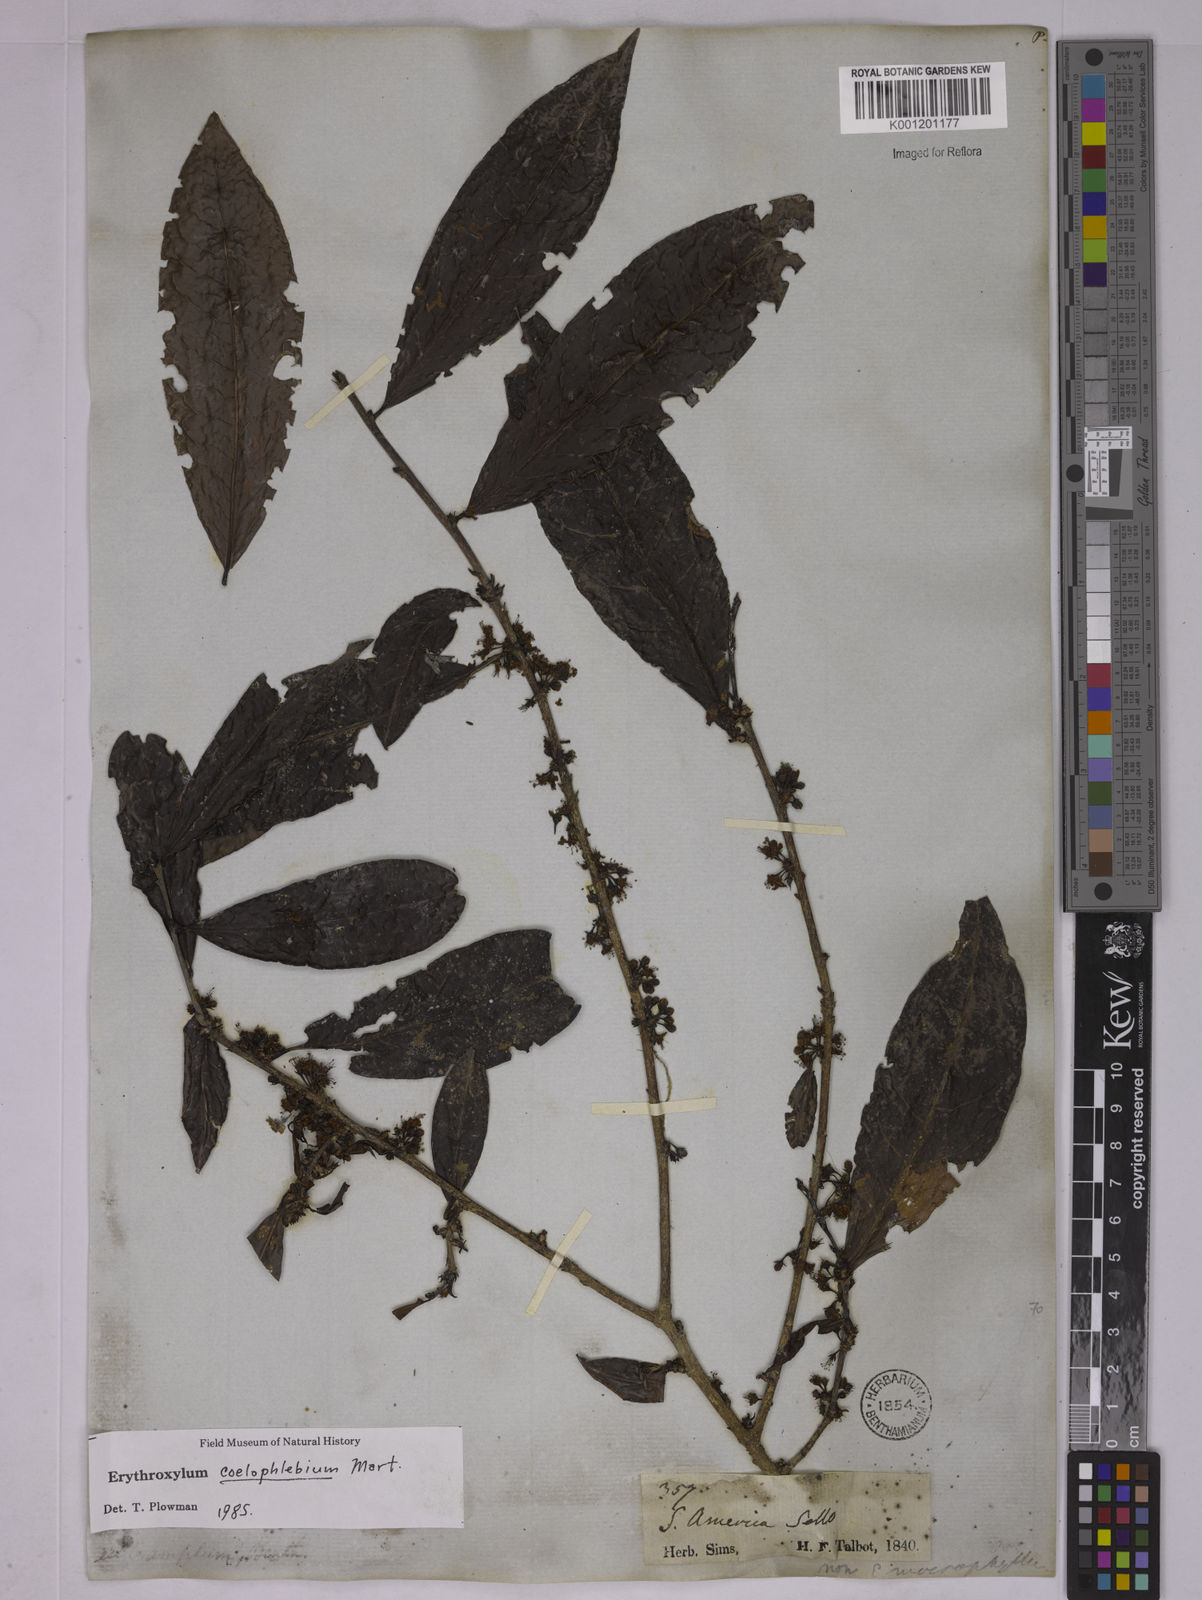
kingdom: Plantae
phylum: Tracheophyta
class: Magnoliopsida
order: Malpighiales
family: Erythroxylaceae
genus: Erythroxylum
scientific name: Erythroxylum coelophlebium
